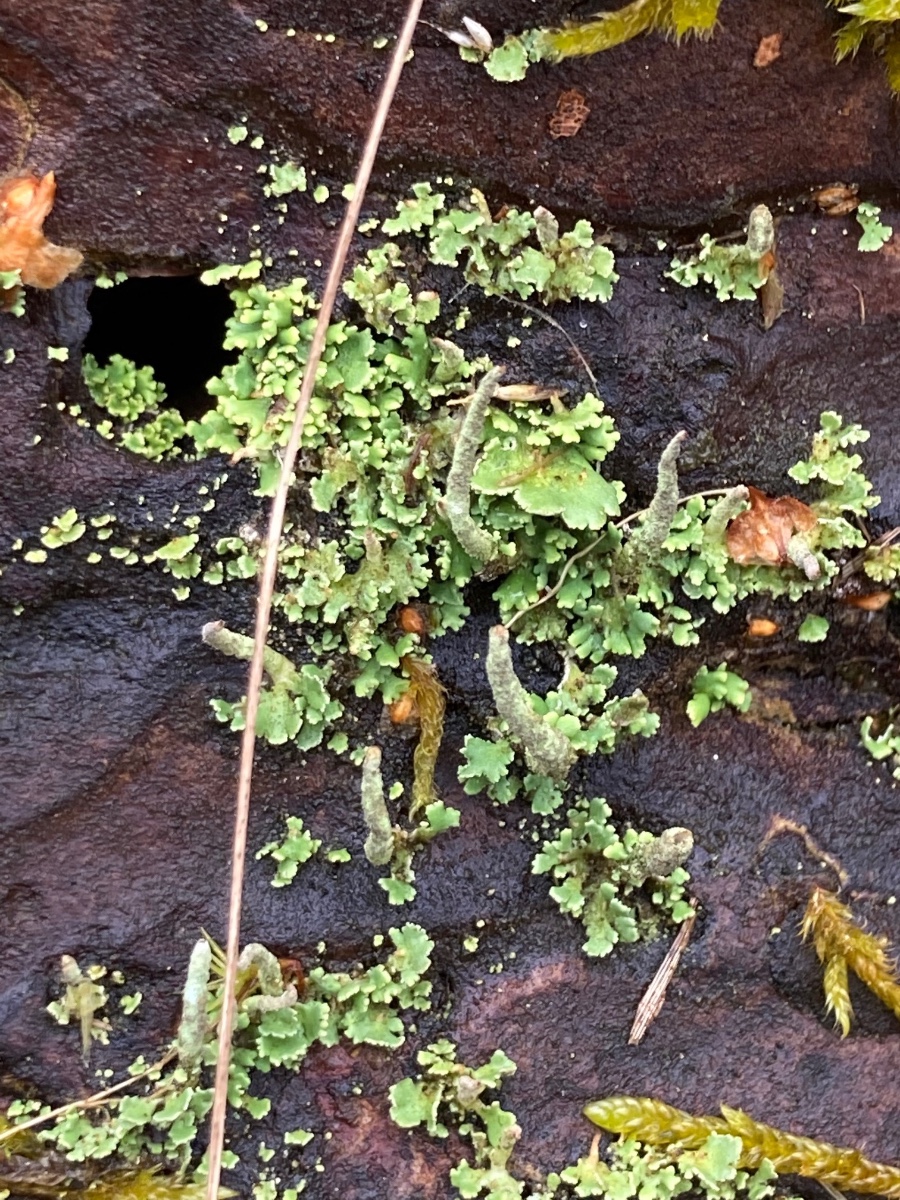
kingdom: Fungi
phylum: Ascomycota
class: Lecanoromycetes
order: Lecanorales
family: Cladoniaceae
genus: Cladonia
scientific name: Cladonia coniocraea
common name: træfods-bægerlav
